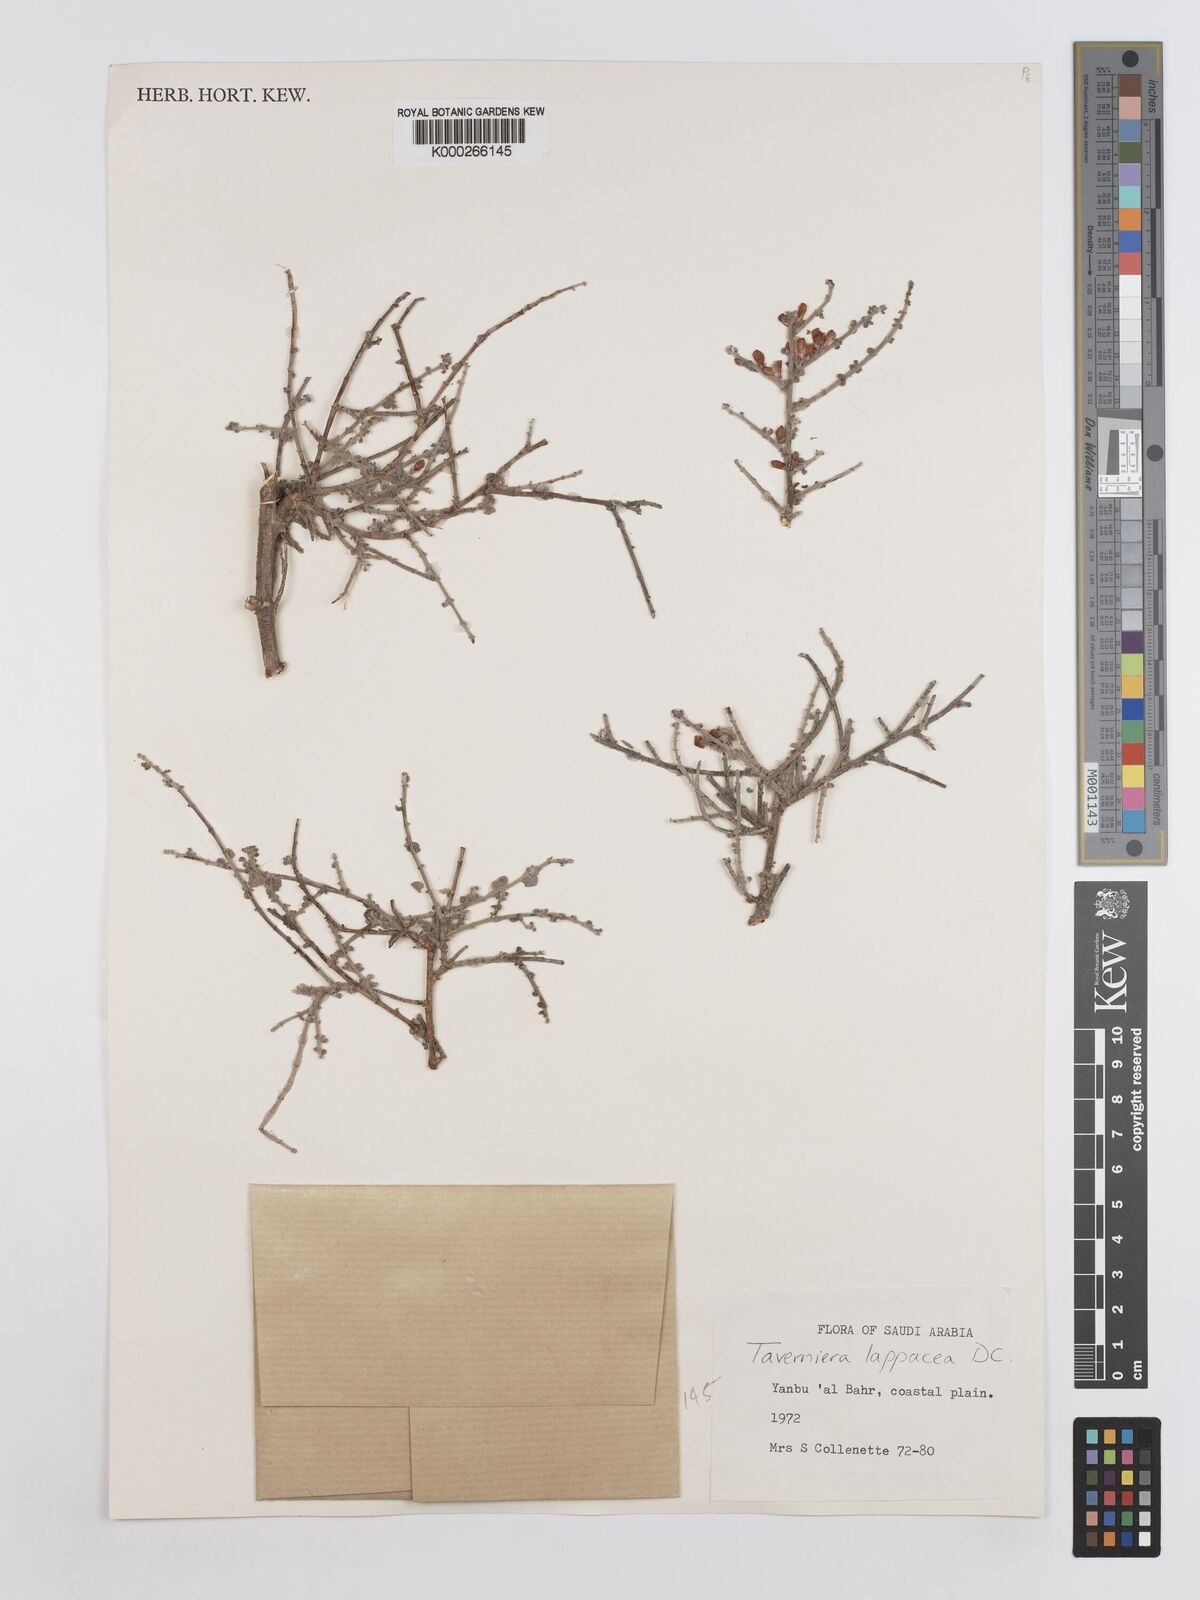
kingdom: Plantae
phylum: Tracheophyta
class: Magnoliopsida
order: Fabales
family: Fabaceae
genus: Taverniera
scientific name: Taverniera lappacea
